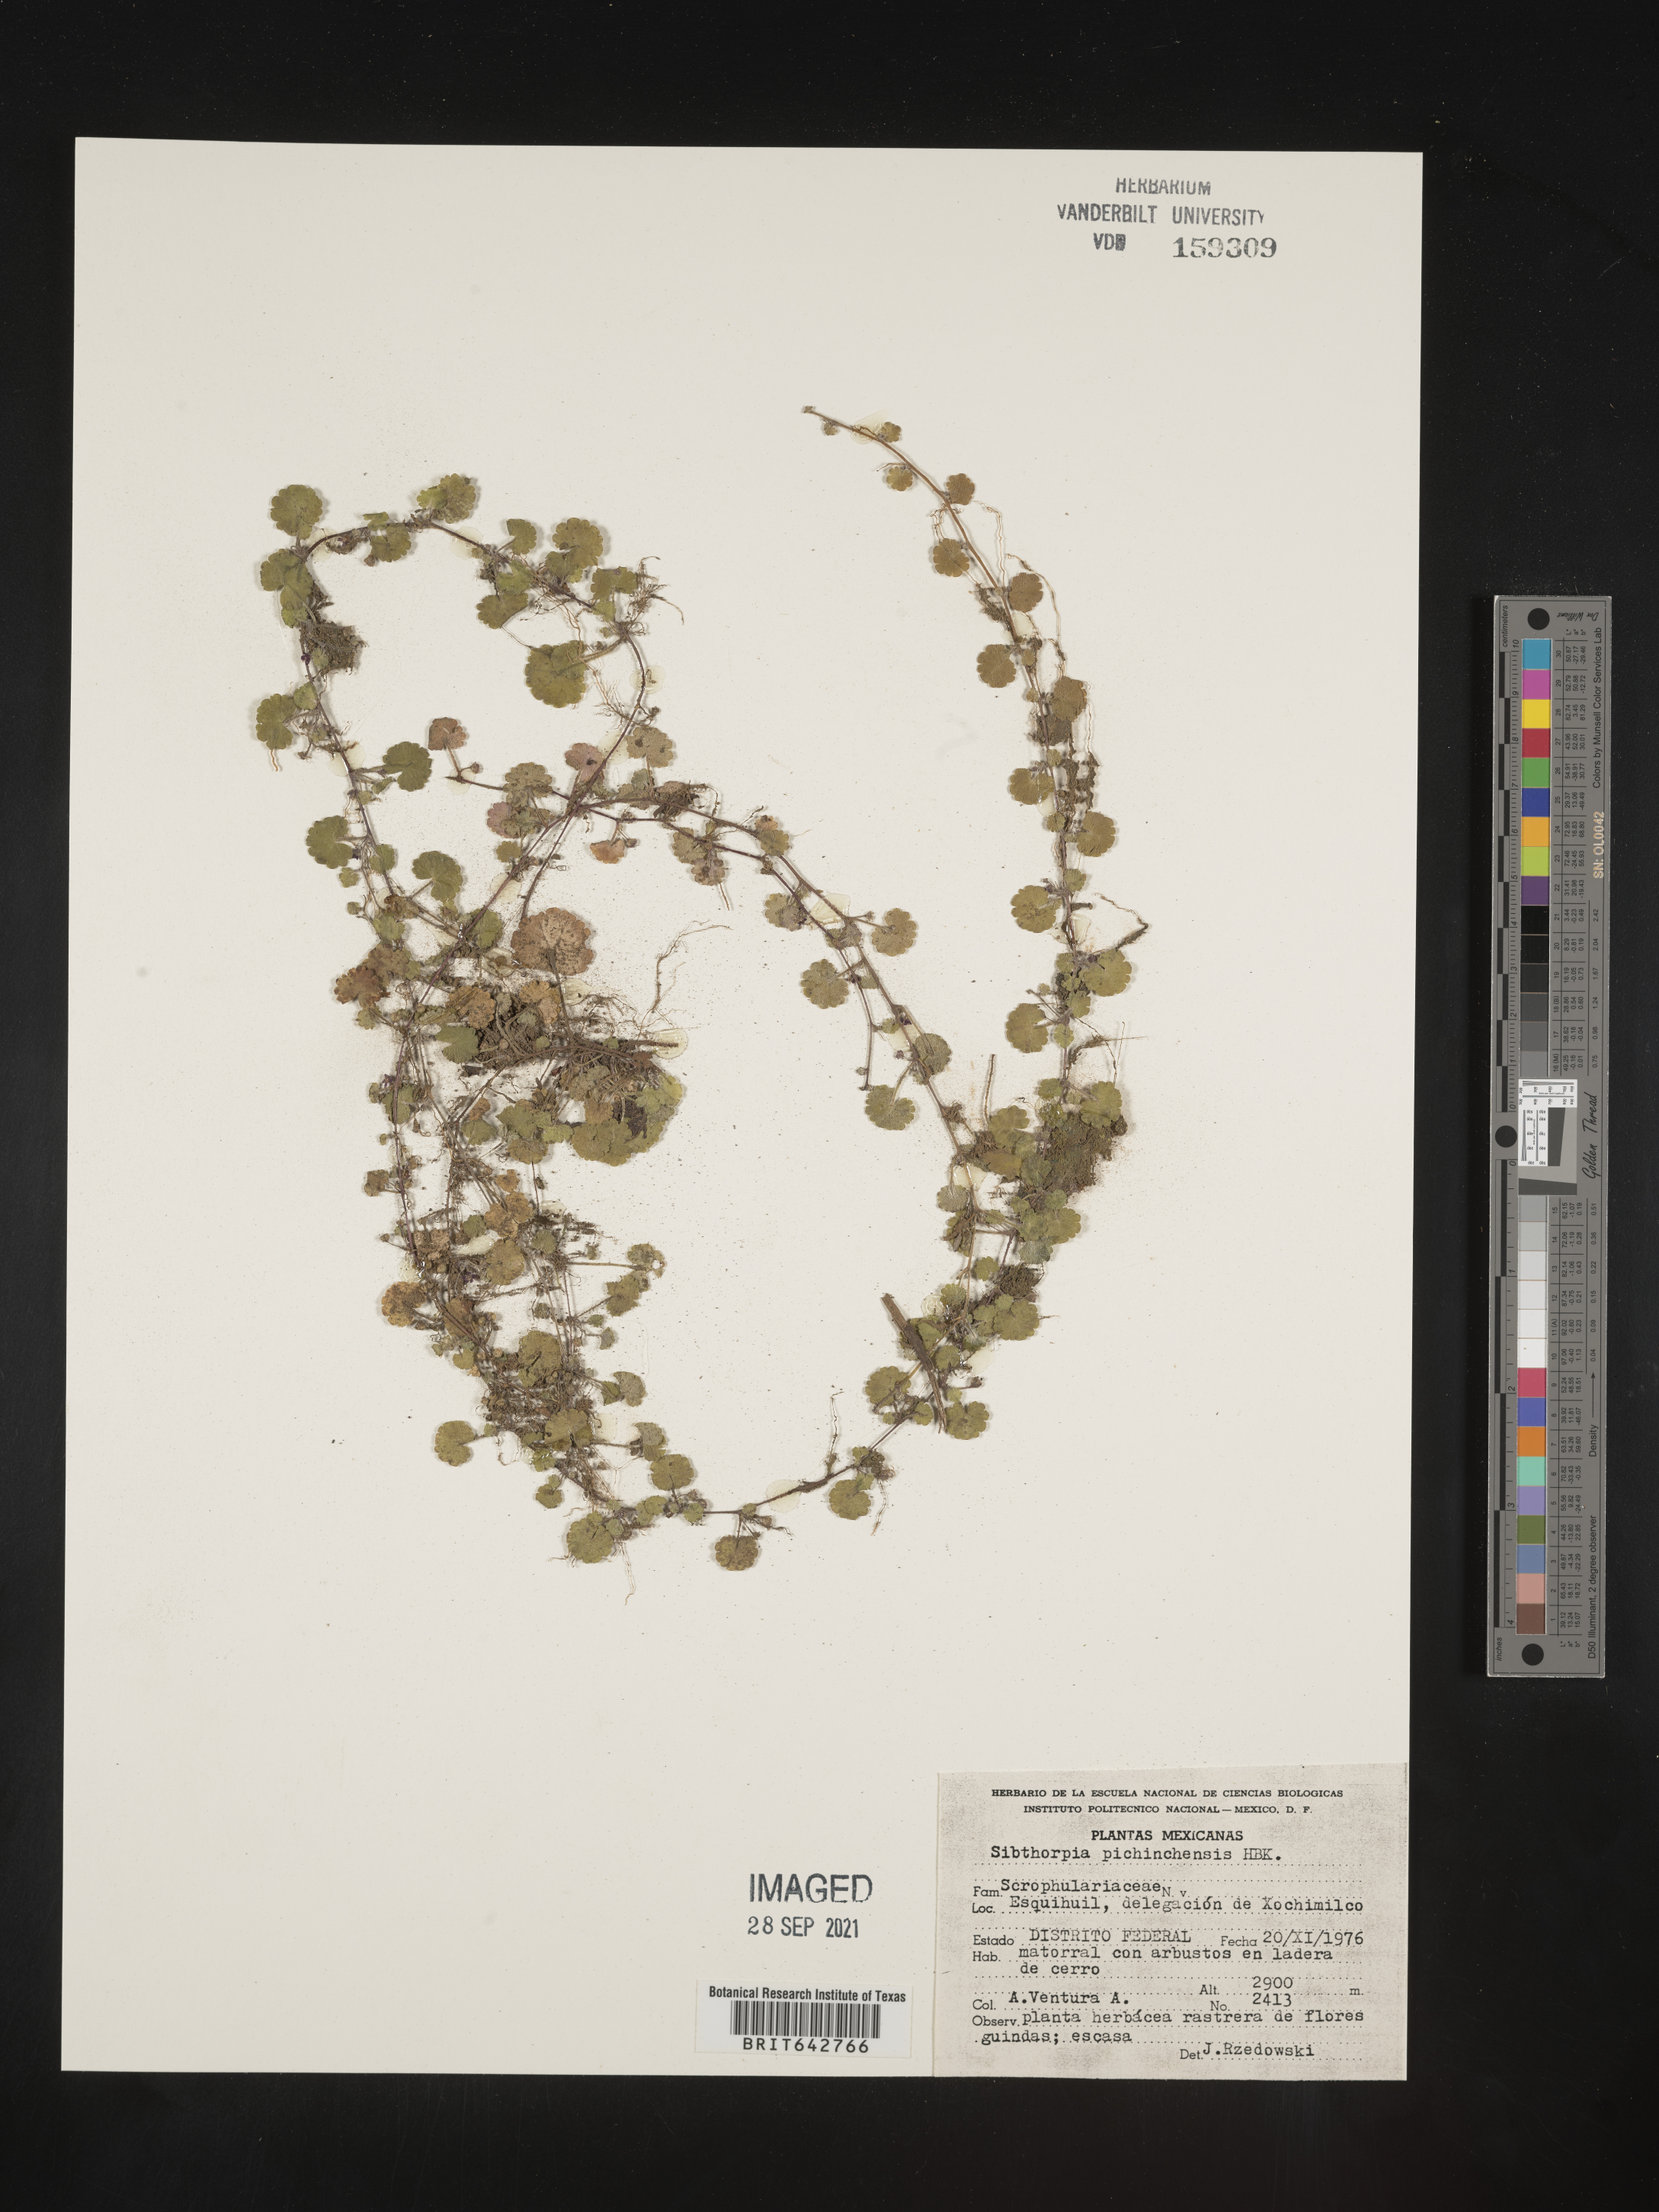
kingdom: Plantae
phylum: Tracheophyta
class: Magnoliopsida
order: Lamiales
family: Plantaginaceae
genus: Sibthorpia
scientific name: Sibthorpia
